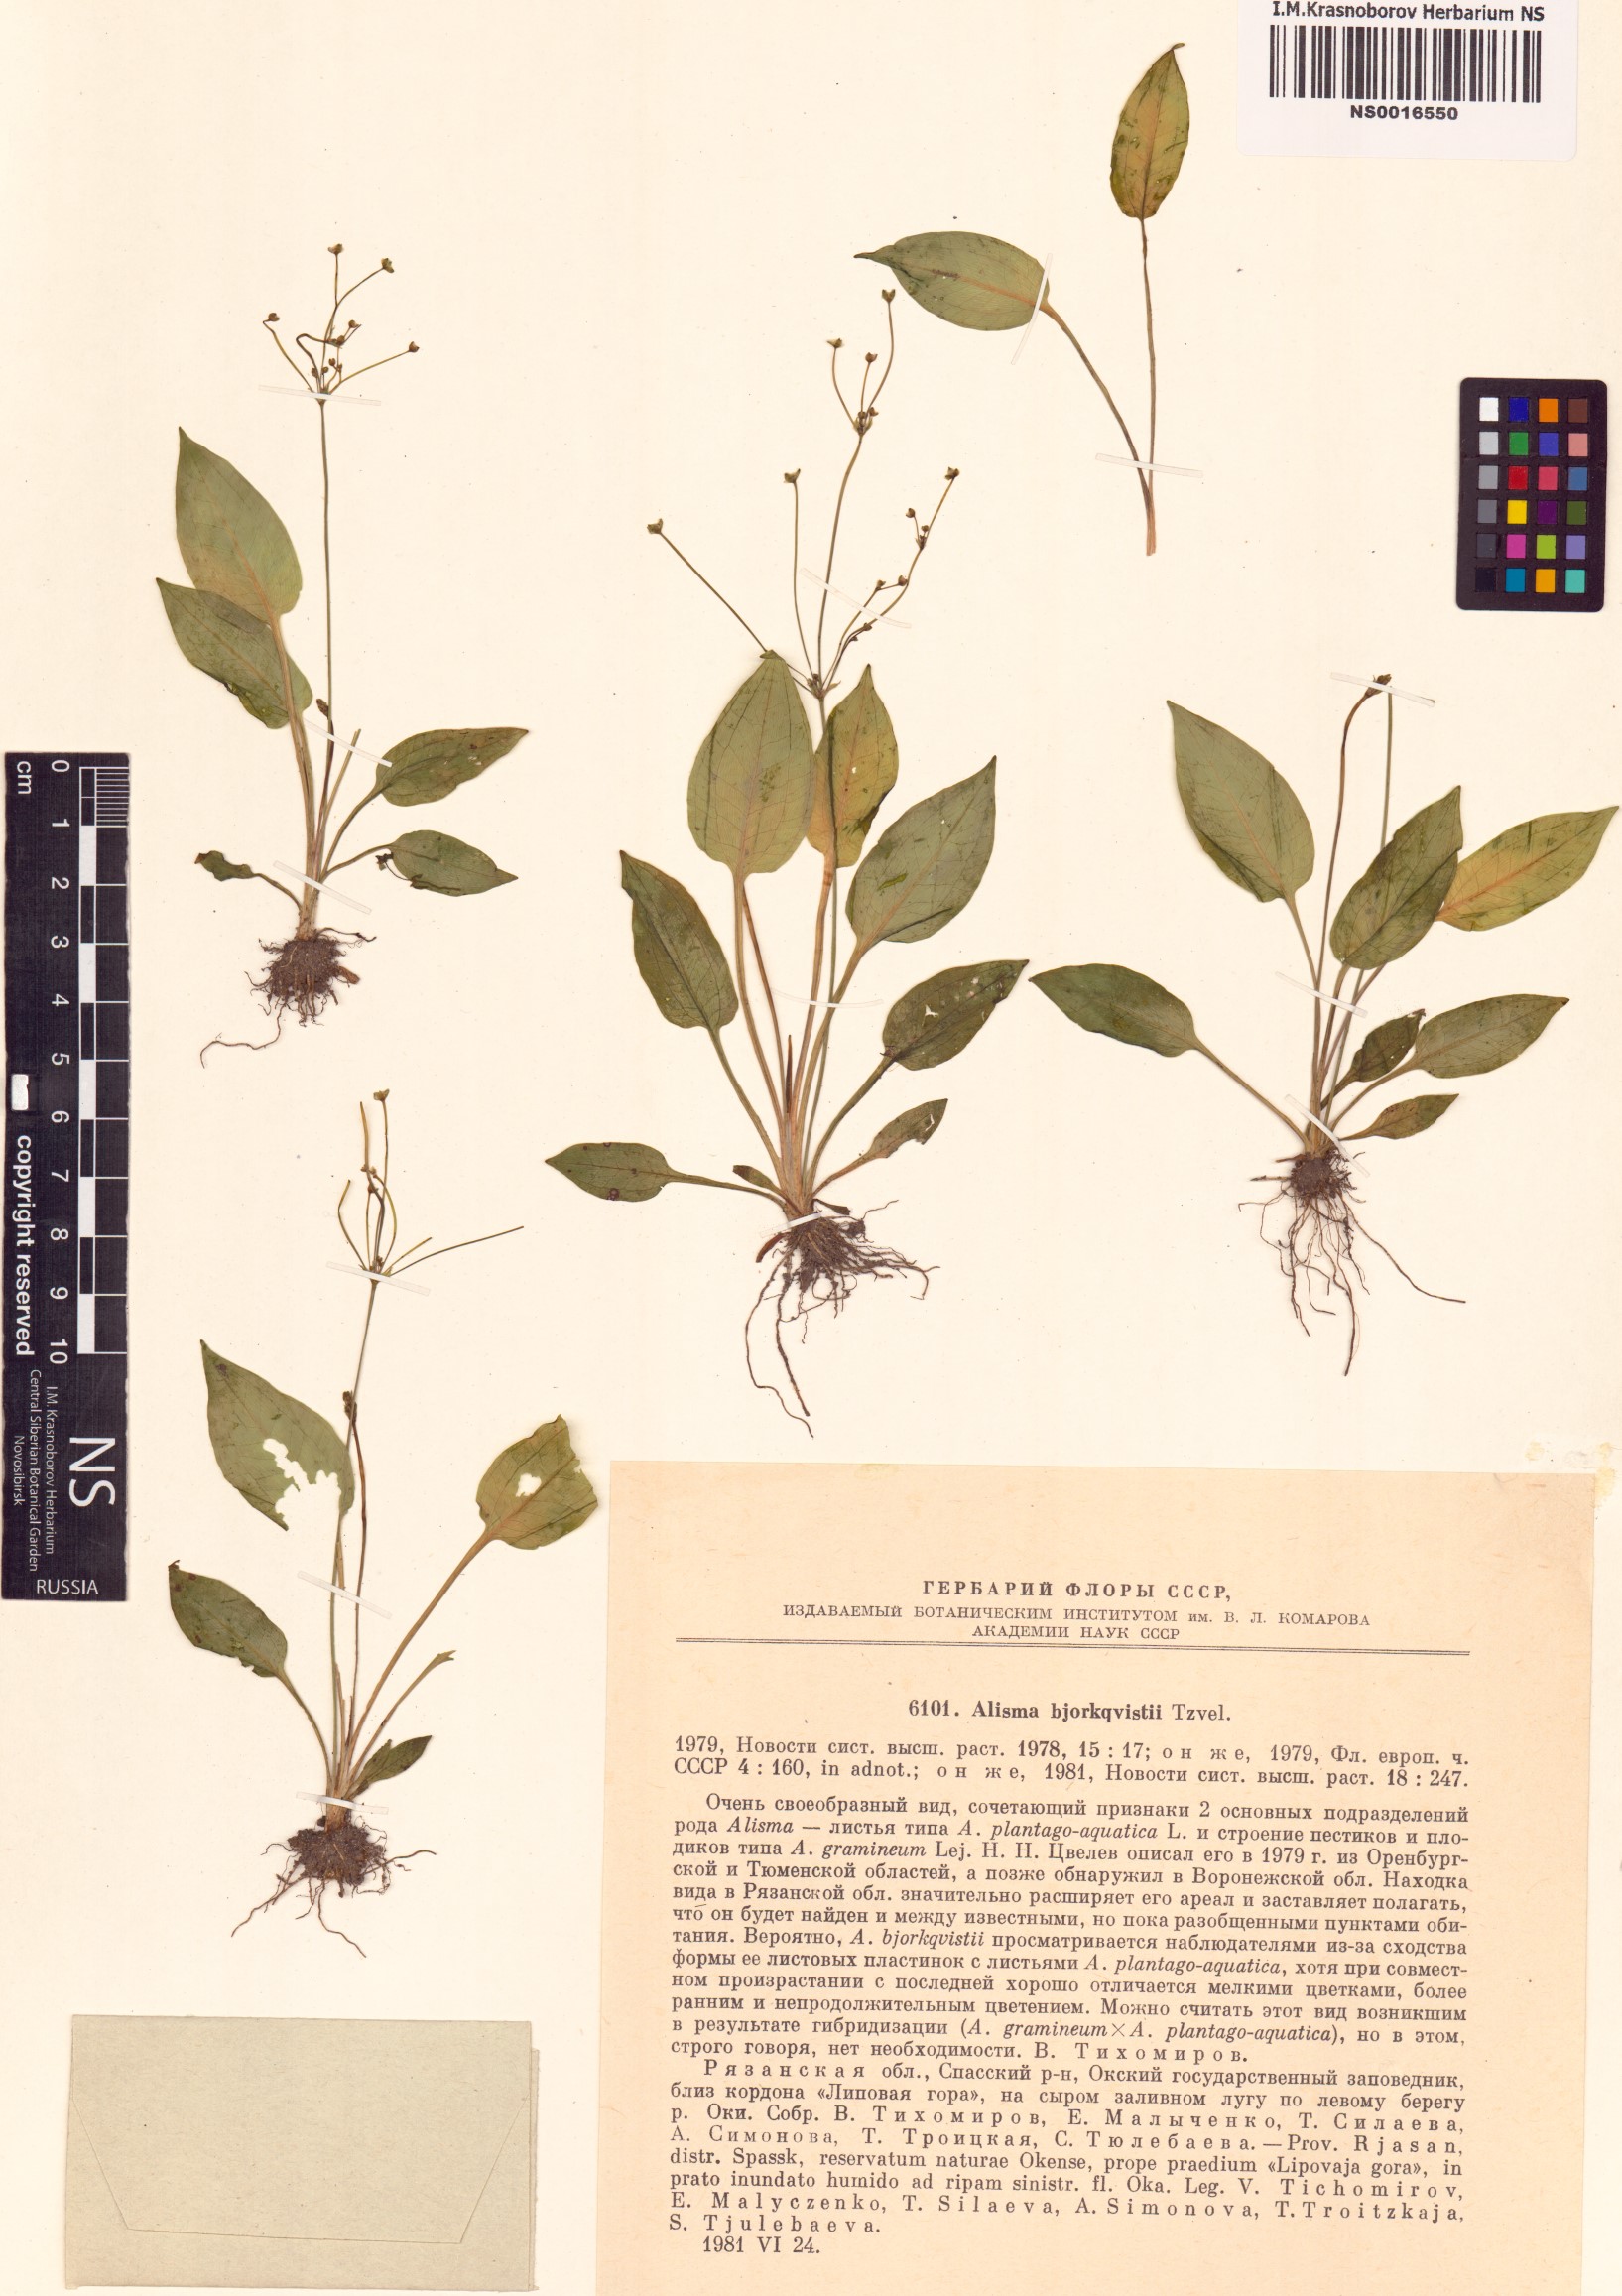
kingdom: Plantae
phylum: Tracheophyta
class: Liliopsida
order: Alismatales
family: Alismataceae
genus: Alisma
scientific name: Alisma bjoerkqvistii
